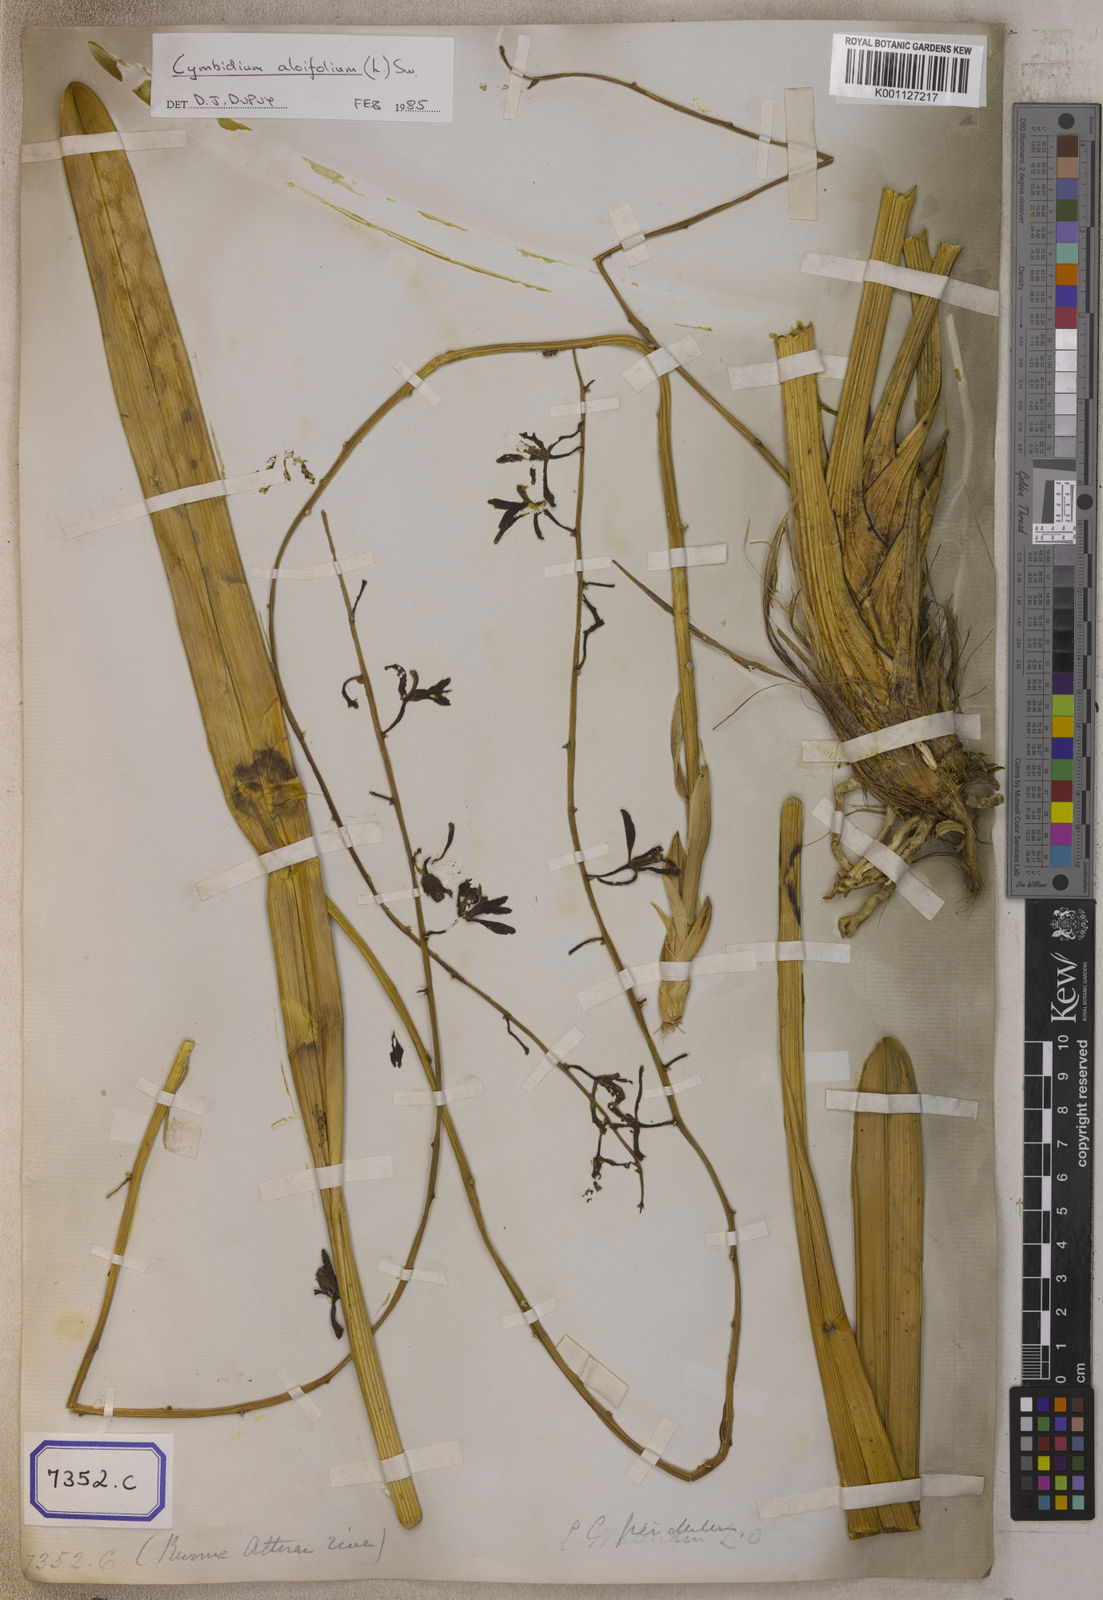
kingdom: Plantae
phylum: Tracheophyta
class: Liliopsida
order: Asparagales
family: Orchidaceae
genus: Cymbidium
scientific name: Cymbidium
